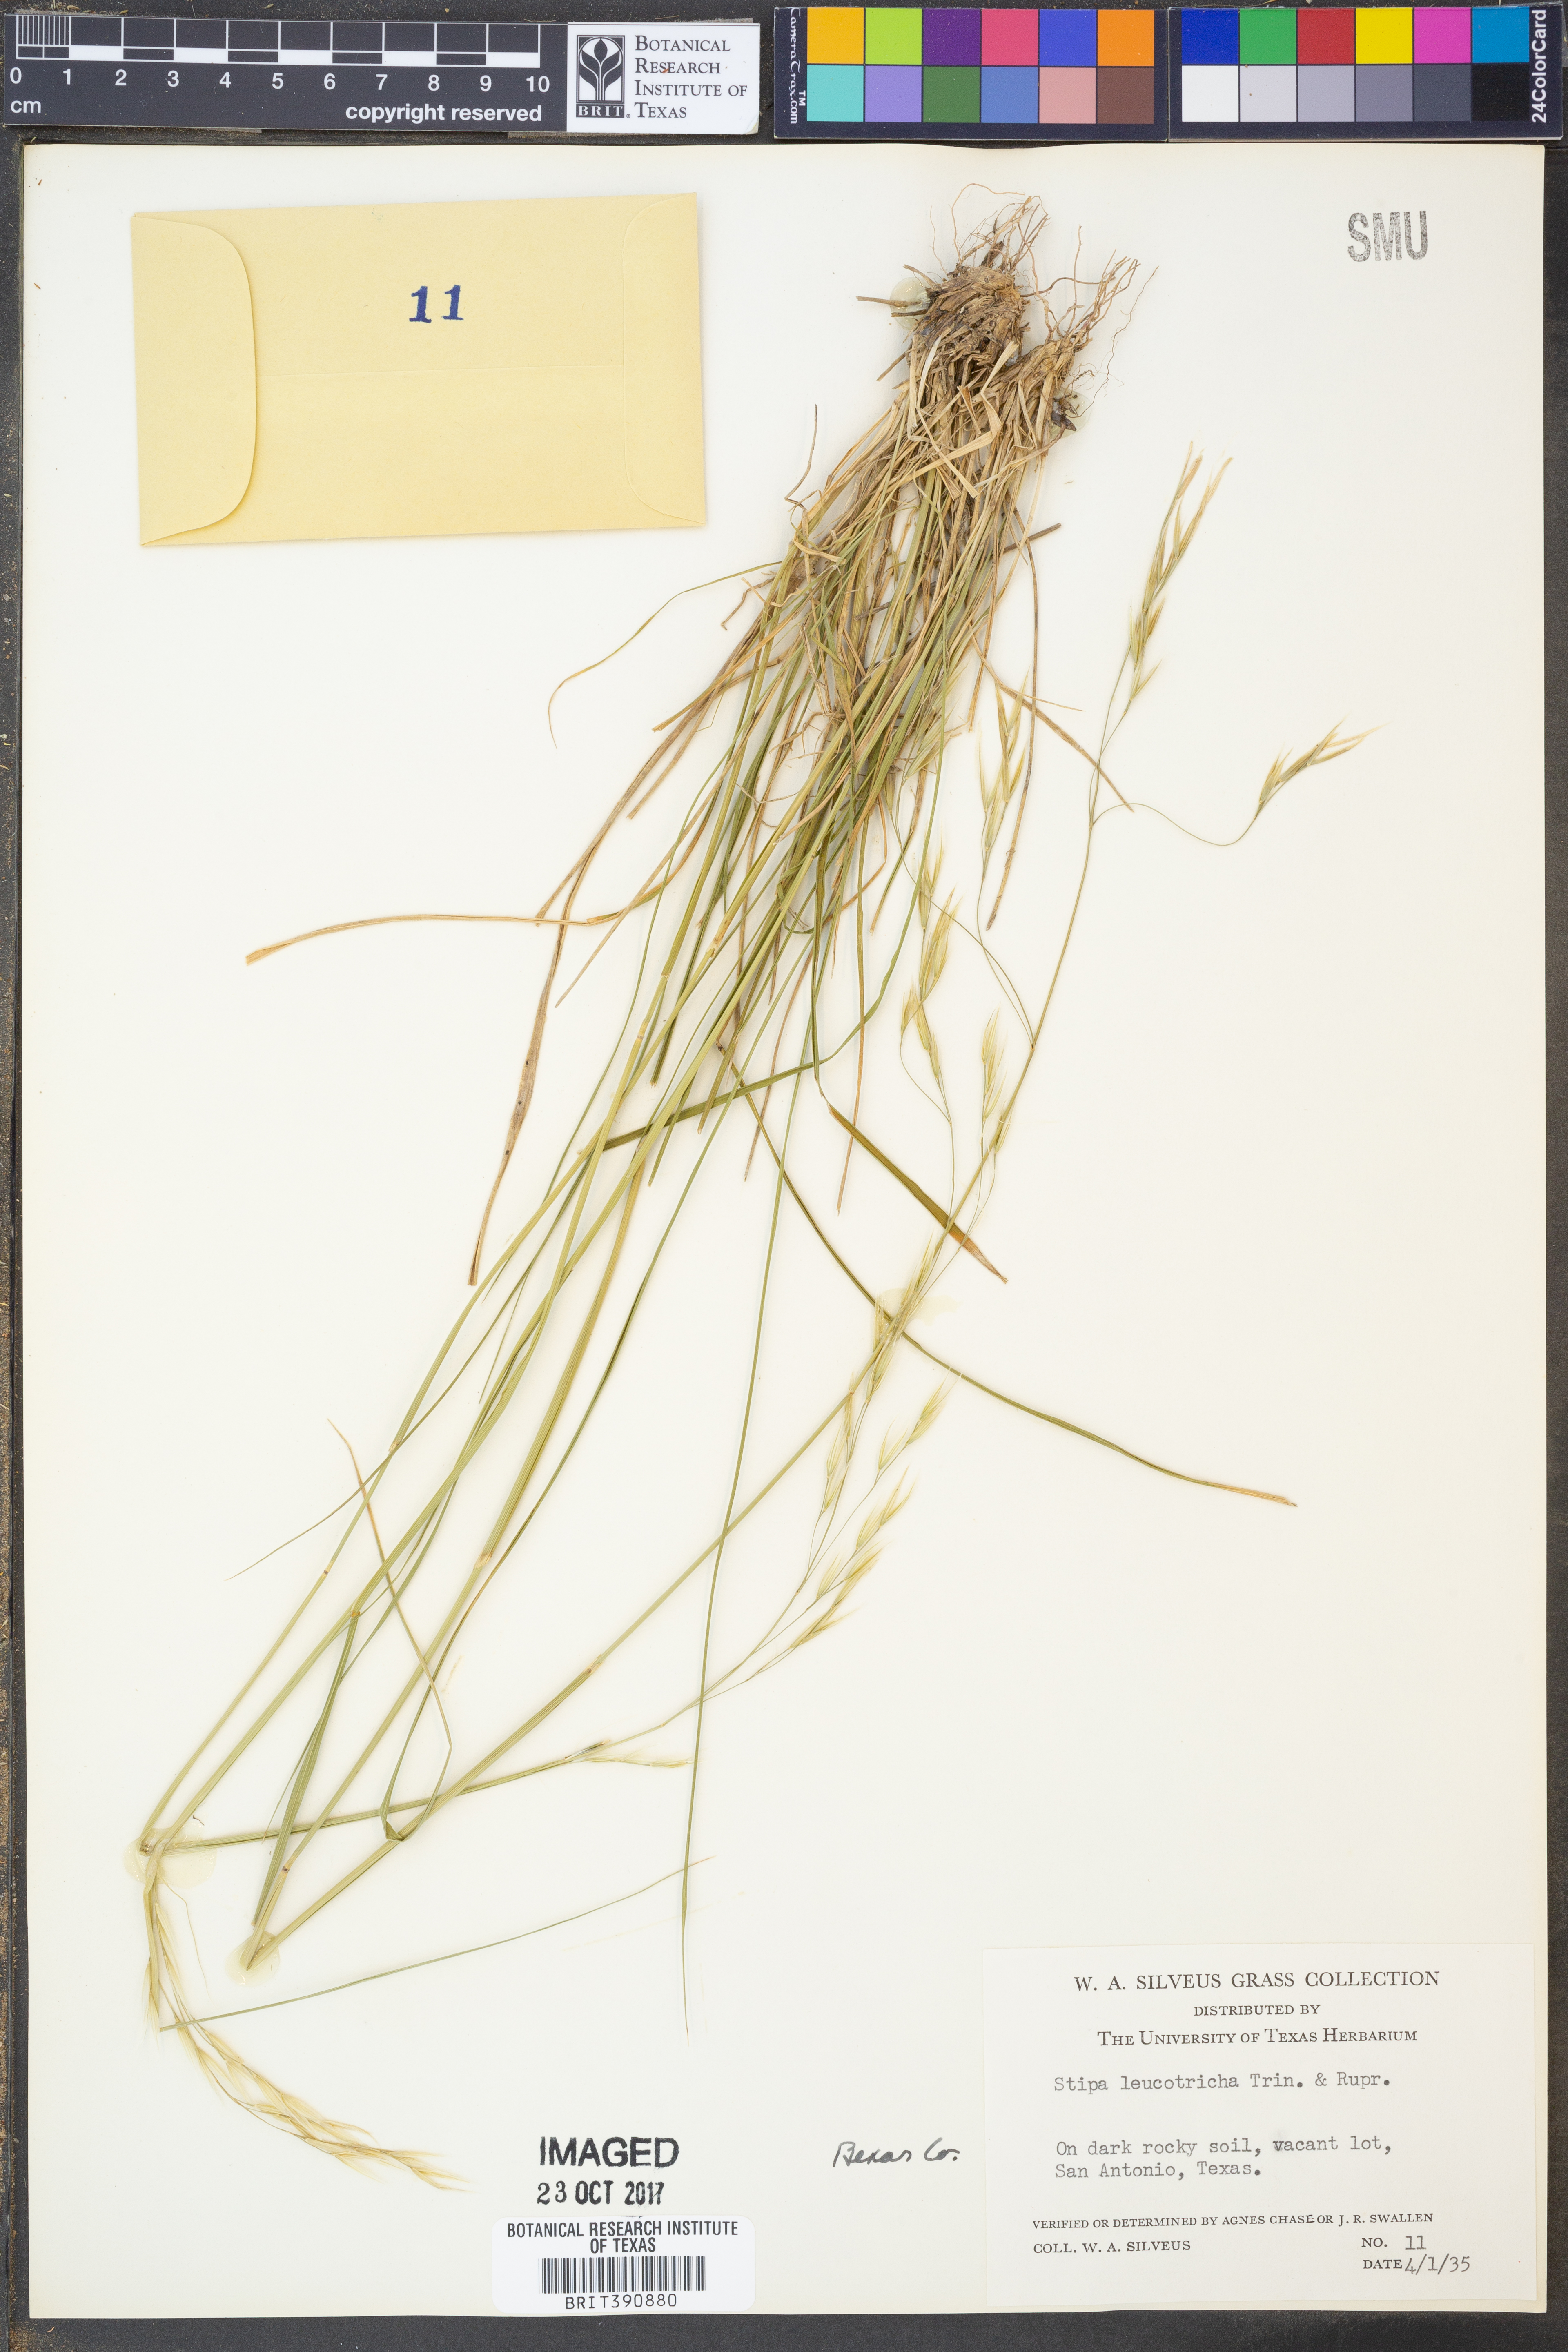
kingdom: Plantae
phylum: Tracheophyta
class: Liliopsida
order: Poales
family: Poaceae
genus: Nassella
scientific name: Nassella leucotricha
